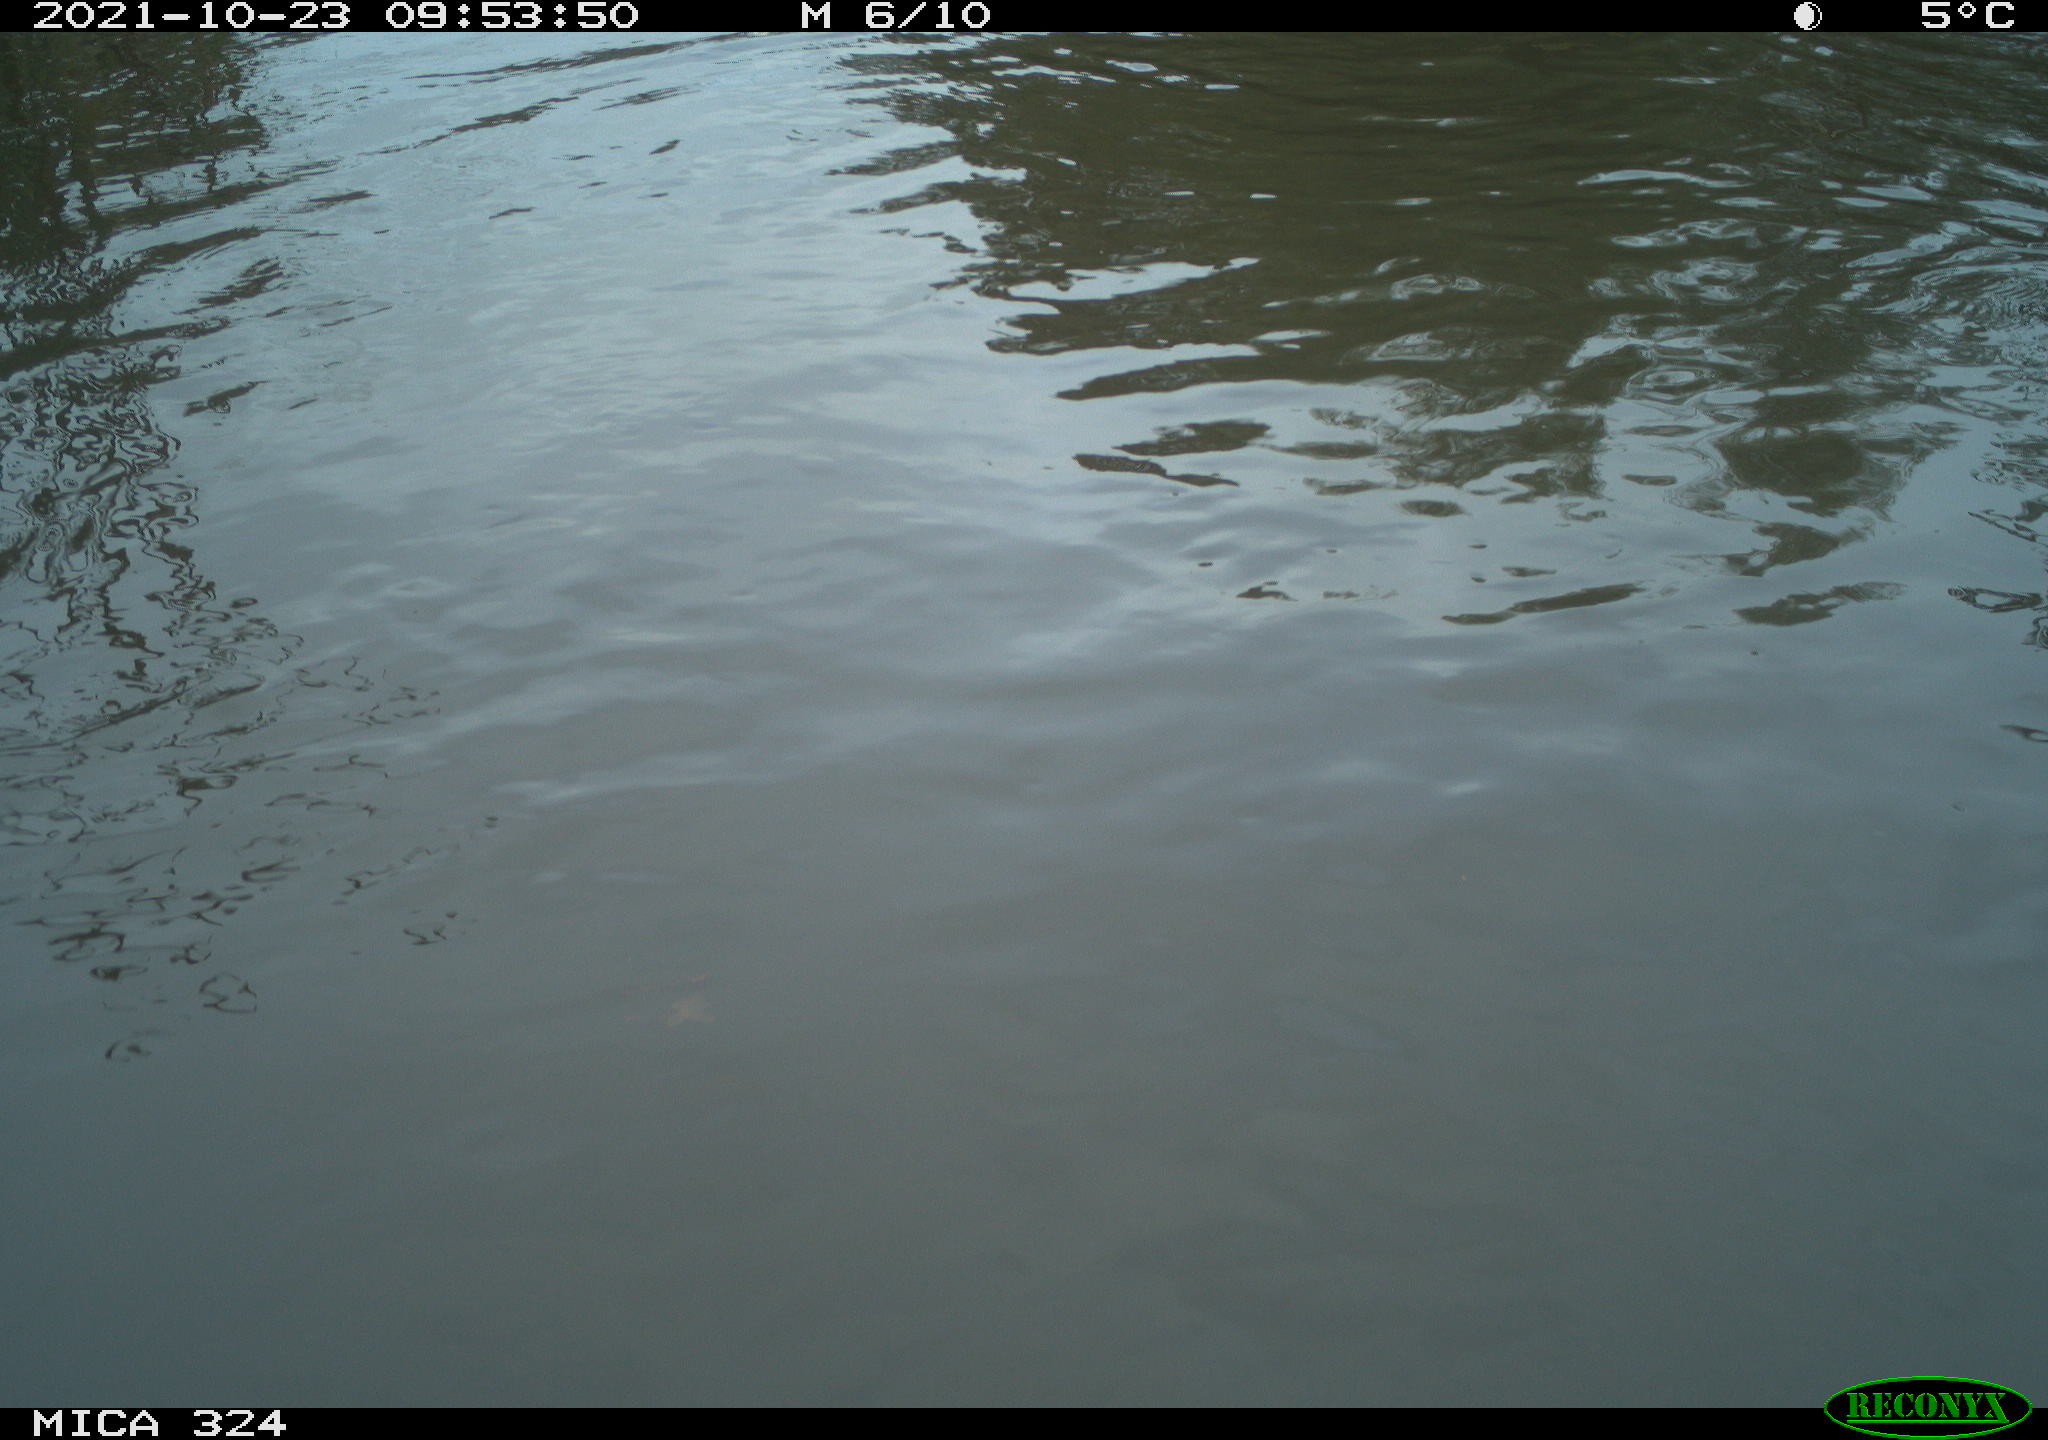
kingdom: Animalia
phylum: Chordata
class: Mammalia
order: Rodentia
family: Cricetidae
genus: Ondatra
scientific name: Ondatra zibethicus
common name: Muskrat
